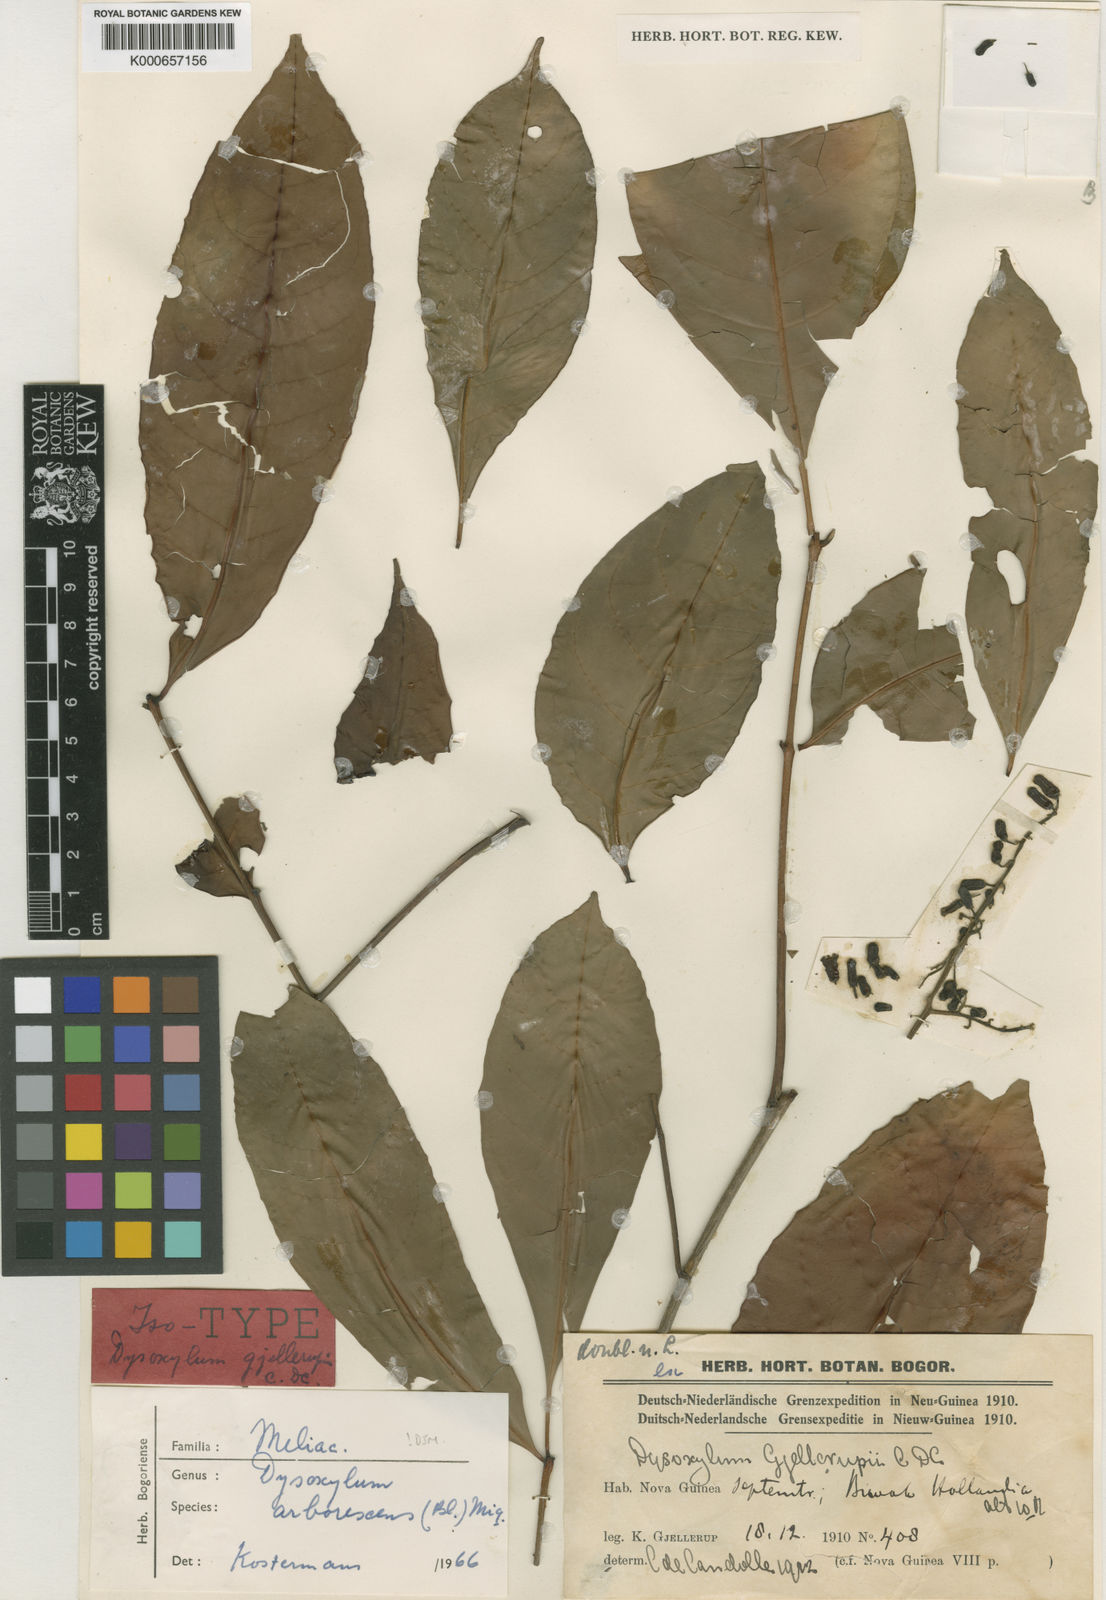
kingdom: Plantae
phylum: Tracheophyta
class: Magnoliopsida
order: Sapindales
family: Meliaceae
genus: Goniocheton
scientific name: Goniocheton arborescens
